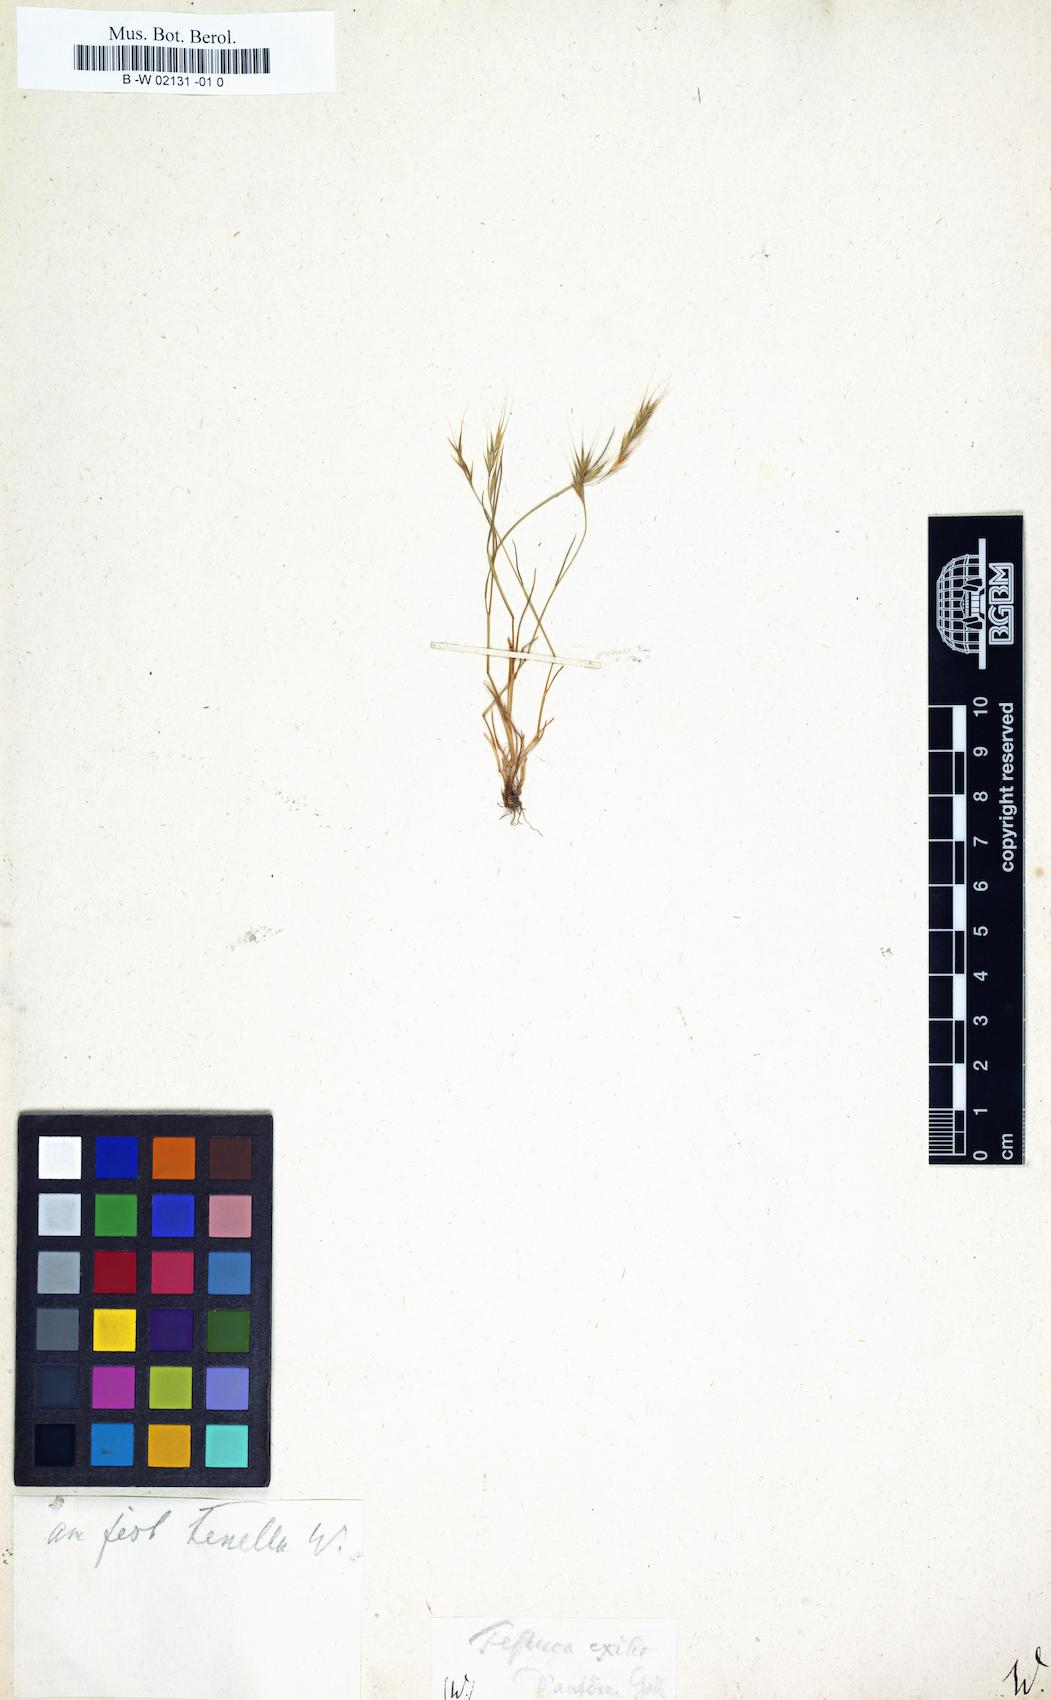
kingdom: Plantae
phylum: Tracheophyta
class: Liliopsida
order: Poales
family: Poaceae
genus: Festuca
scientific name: Festuca
